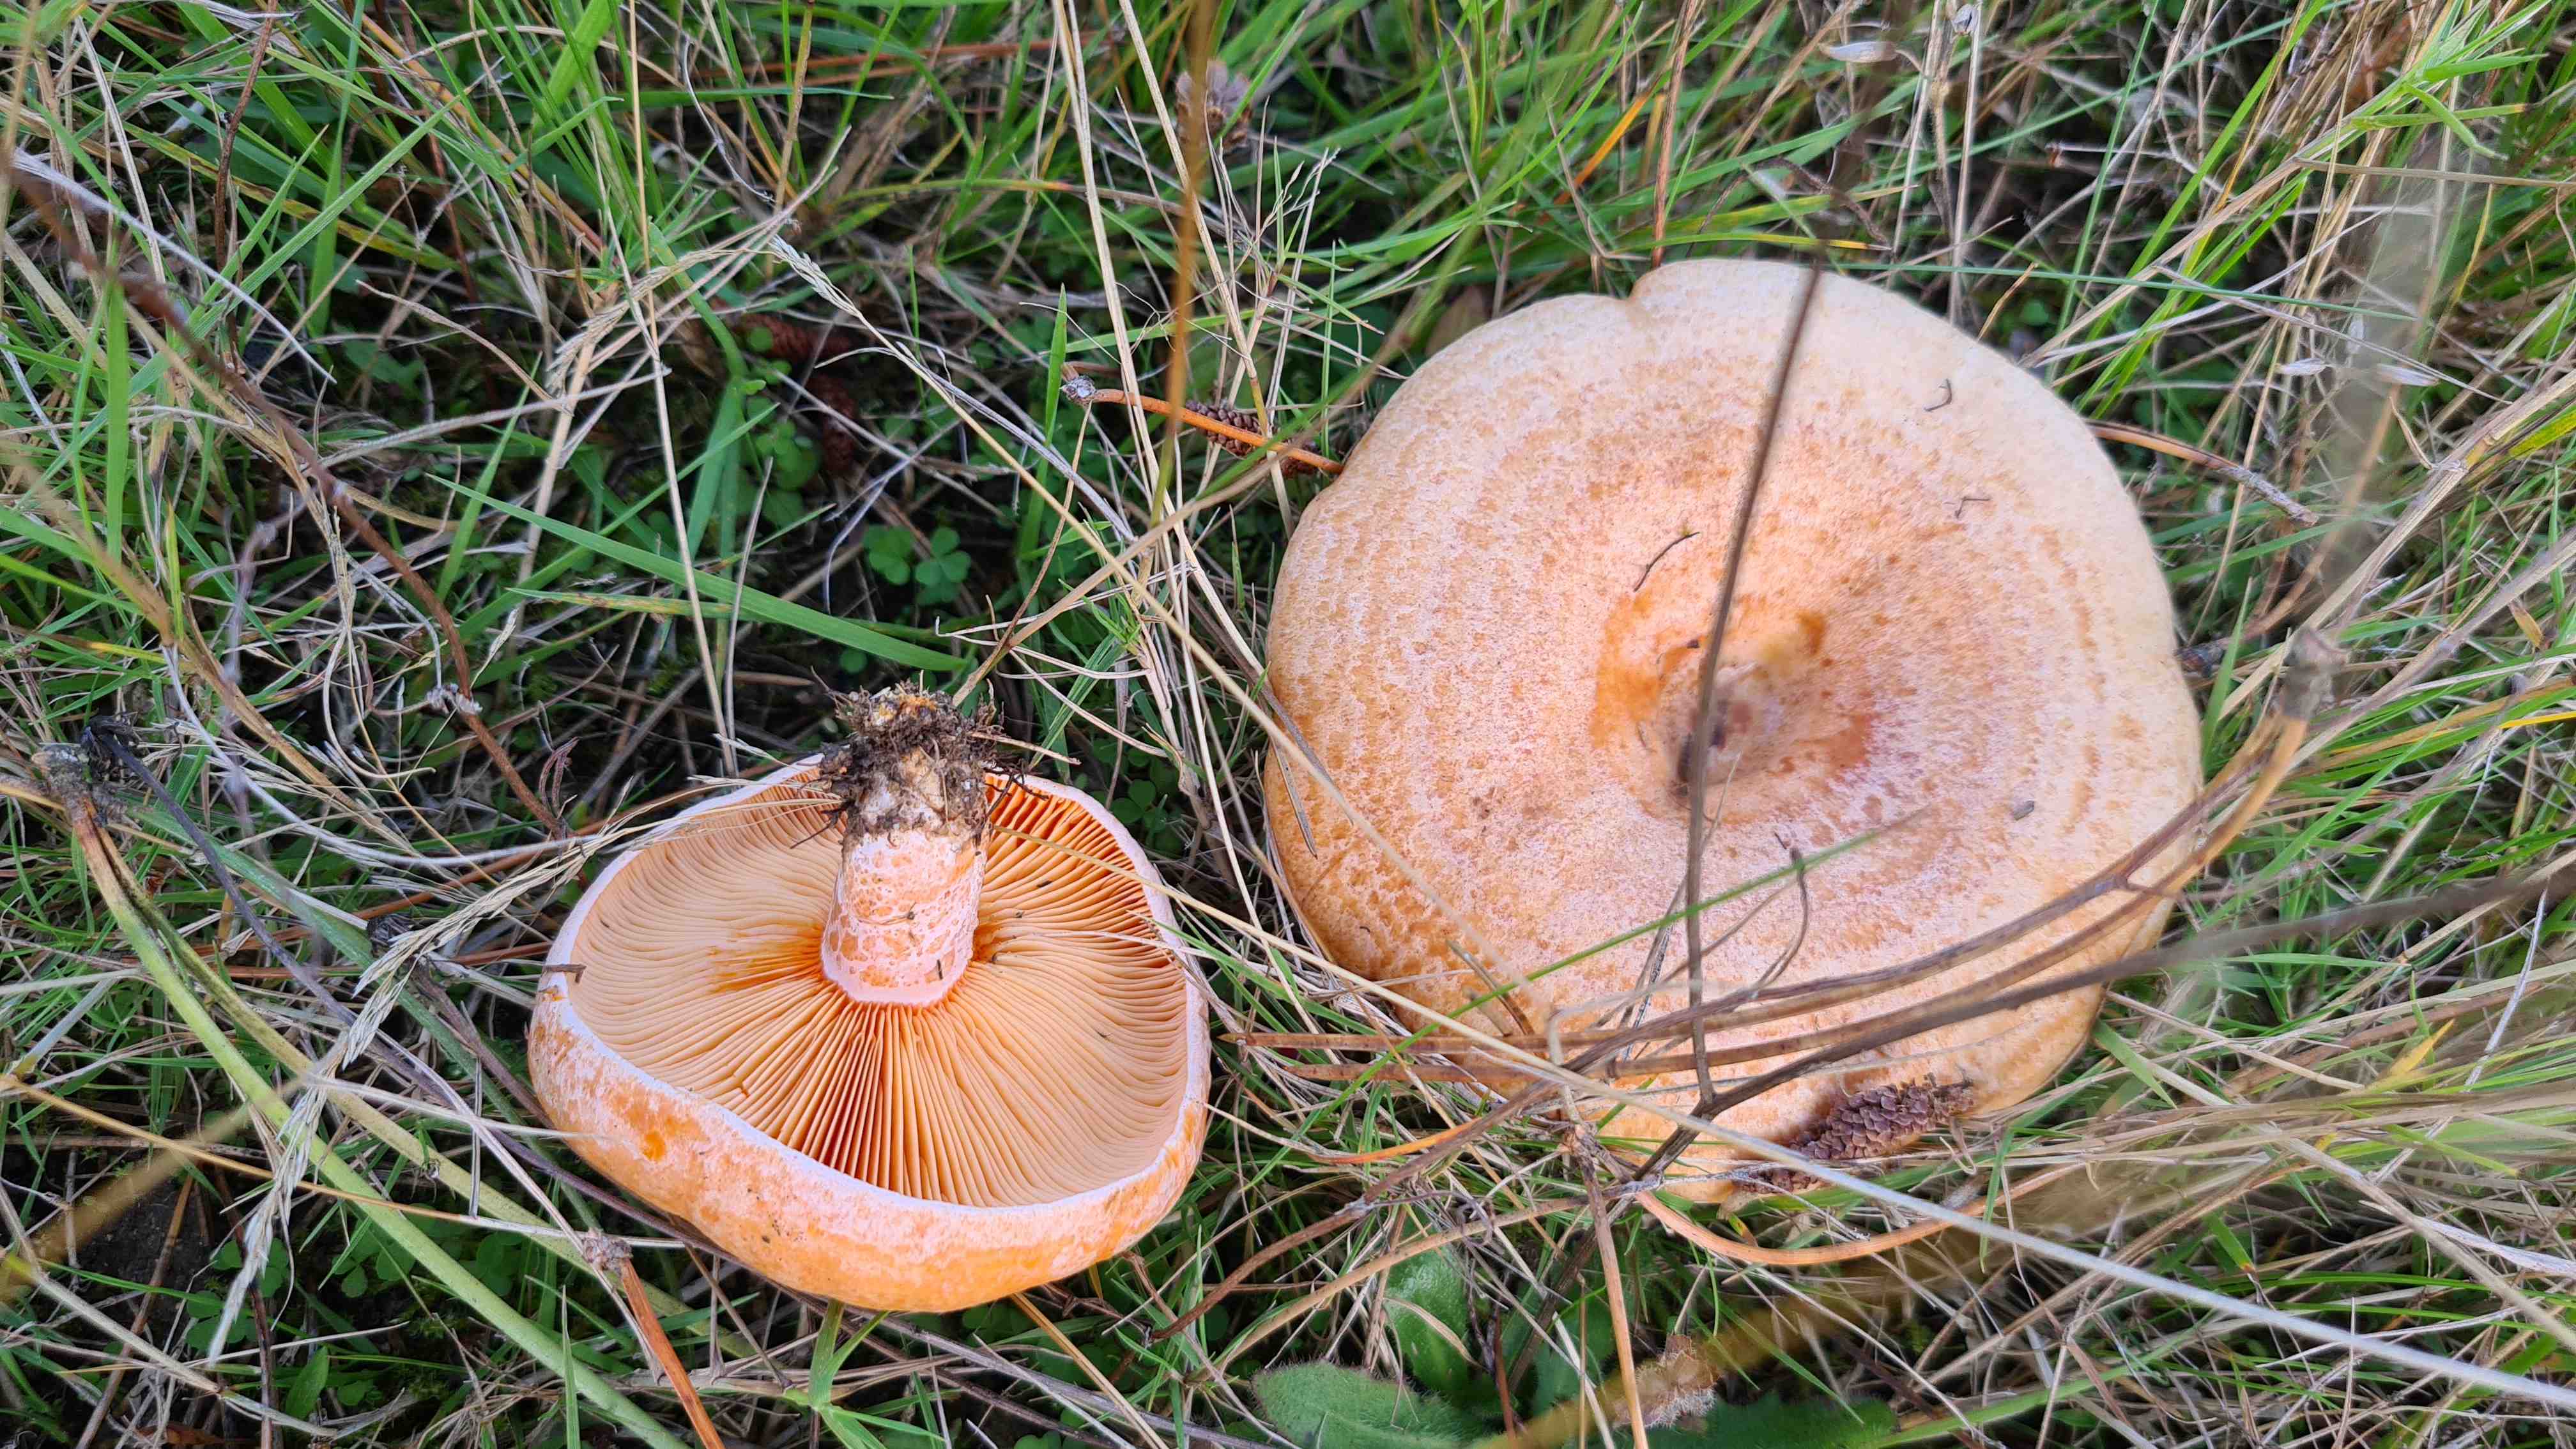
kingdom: Fungi
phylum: Basidiomycota
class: Agaricomycetes
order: Russulales
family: Russulaceae
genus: Lactarius
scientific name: Lactarius deliciosus
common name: velsmagende mælkehat
